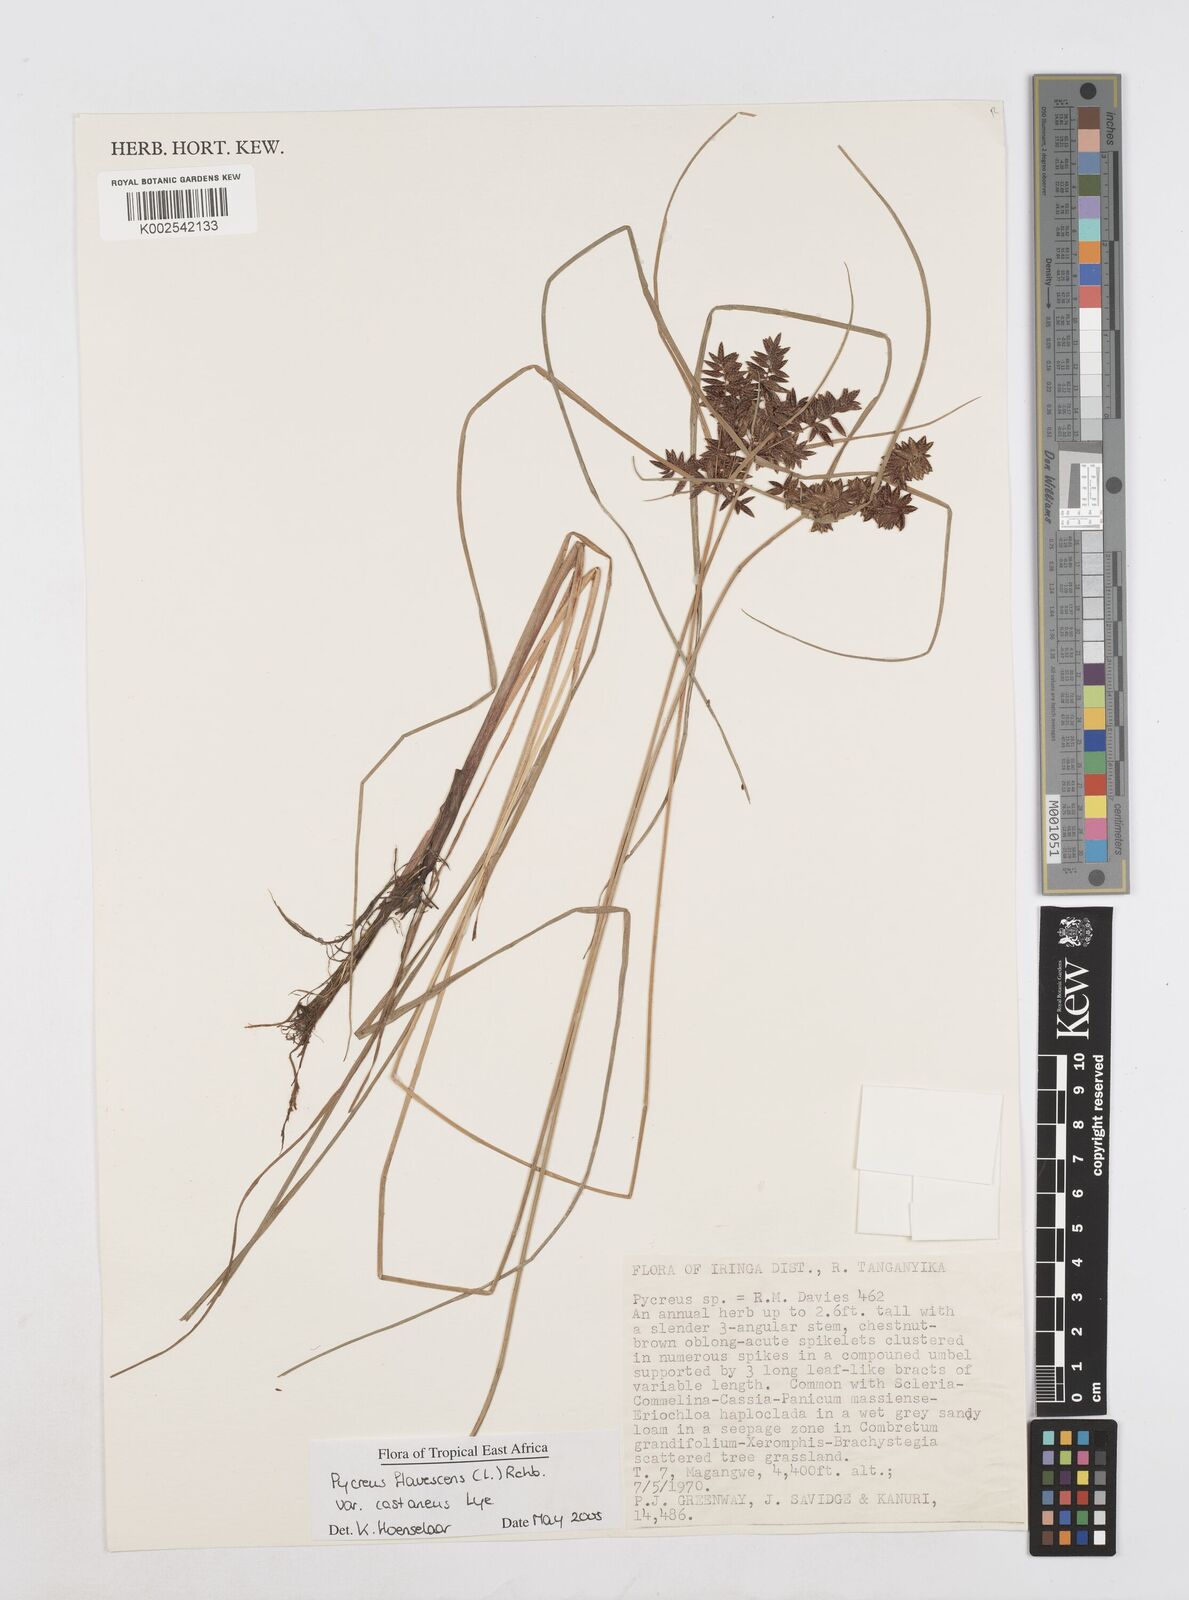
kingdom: Plantae
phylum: Tracheophyta
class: Liliopsida
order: Poales
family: Cyperaceae
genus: Cyperus
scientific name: Cyperus flavescens
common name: Yellow galingale
